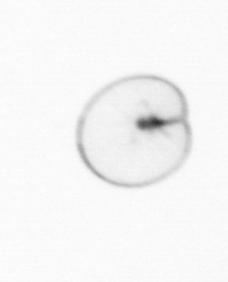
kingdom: Chromista
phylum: Myzozoa
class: Dinophyceae
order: Noctilucales
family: Noctilucaceae
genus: Noctiluca
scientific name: Noctiluca scintillans
